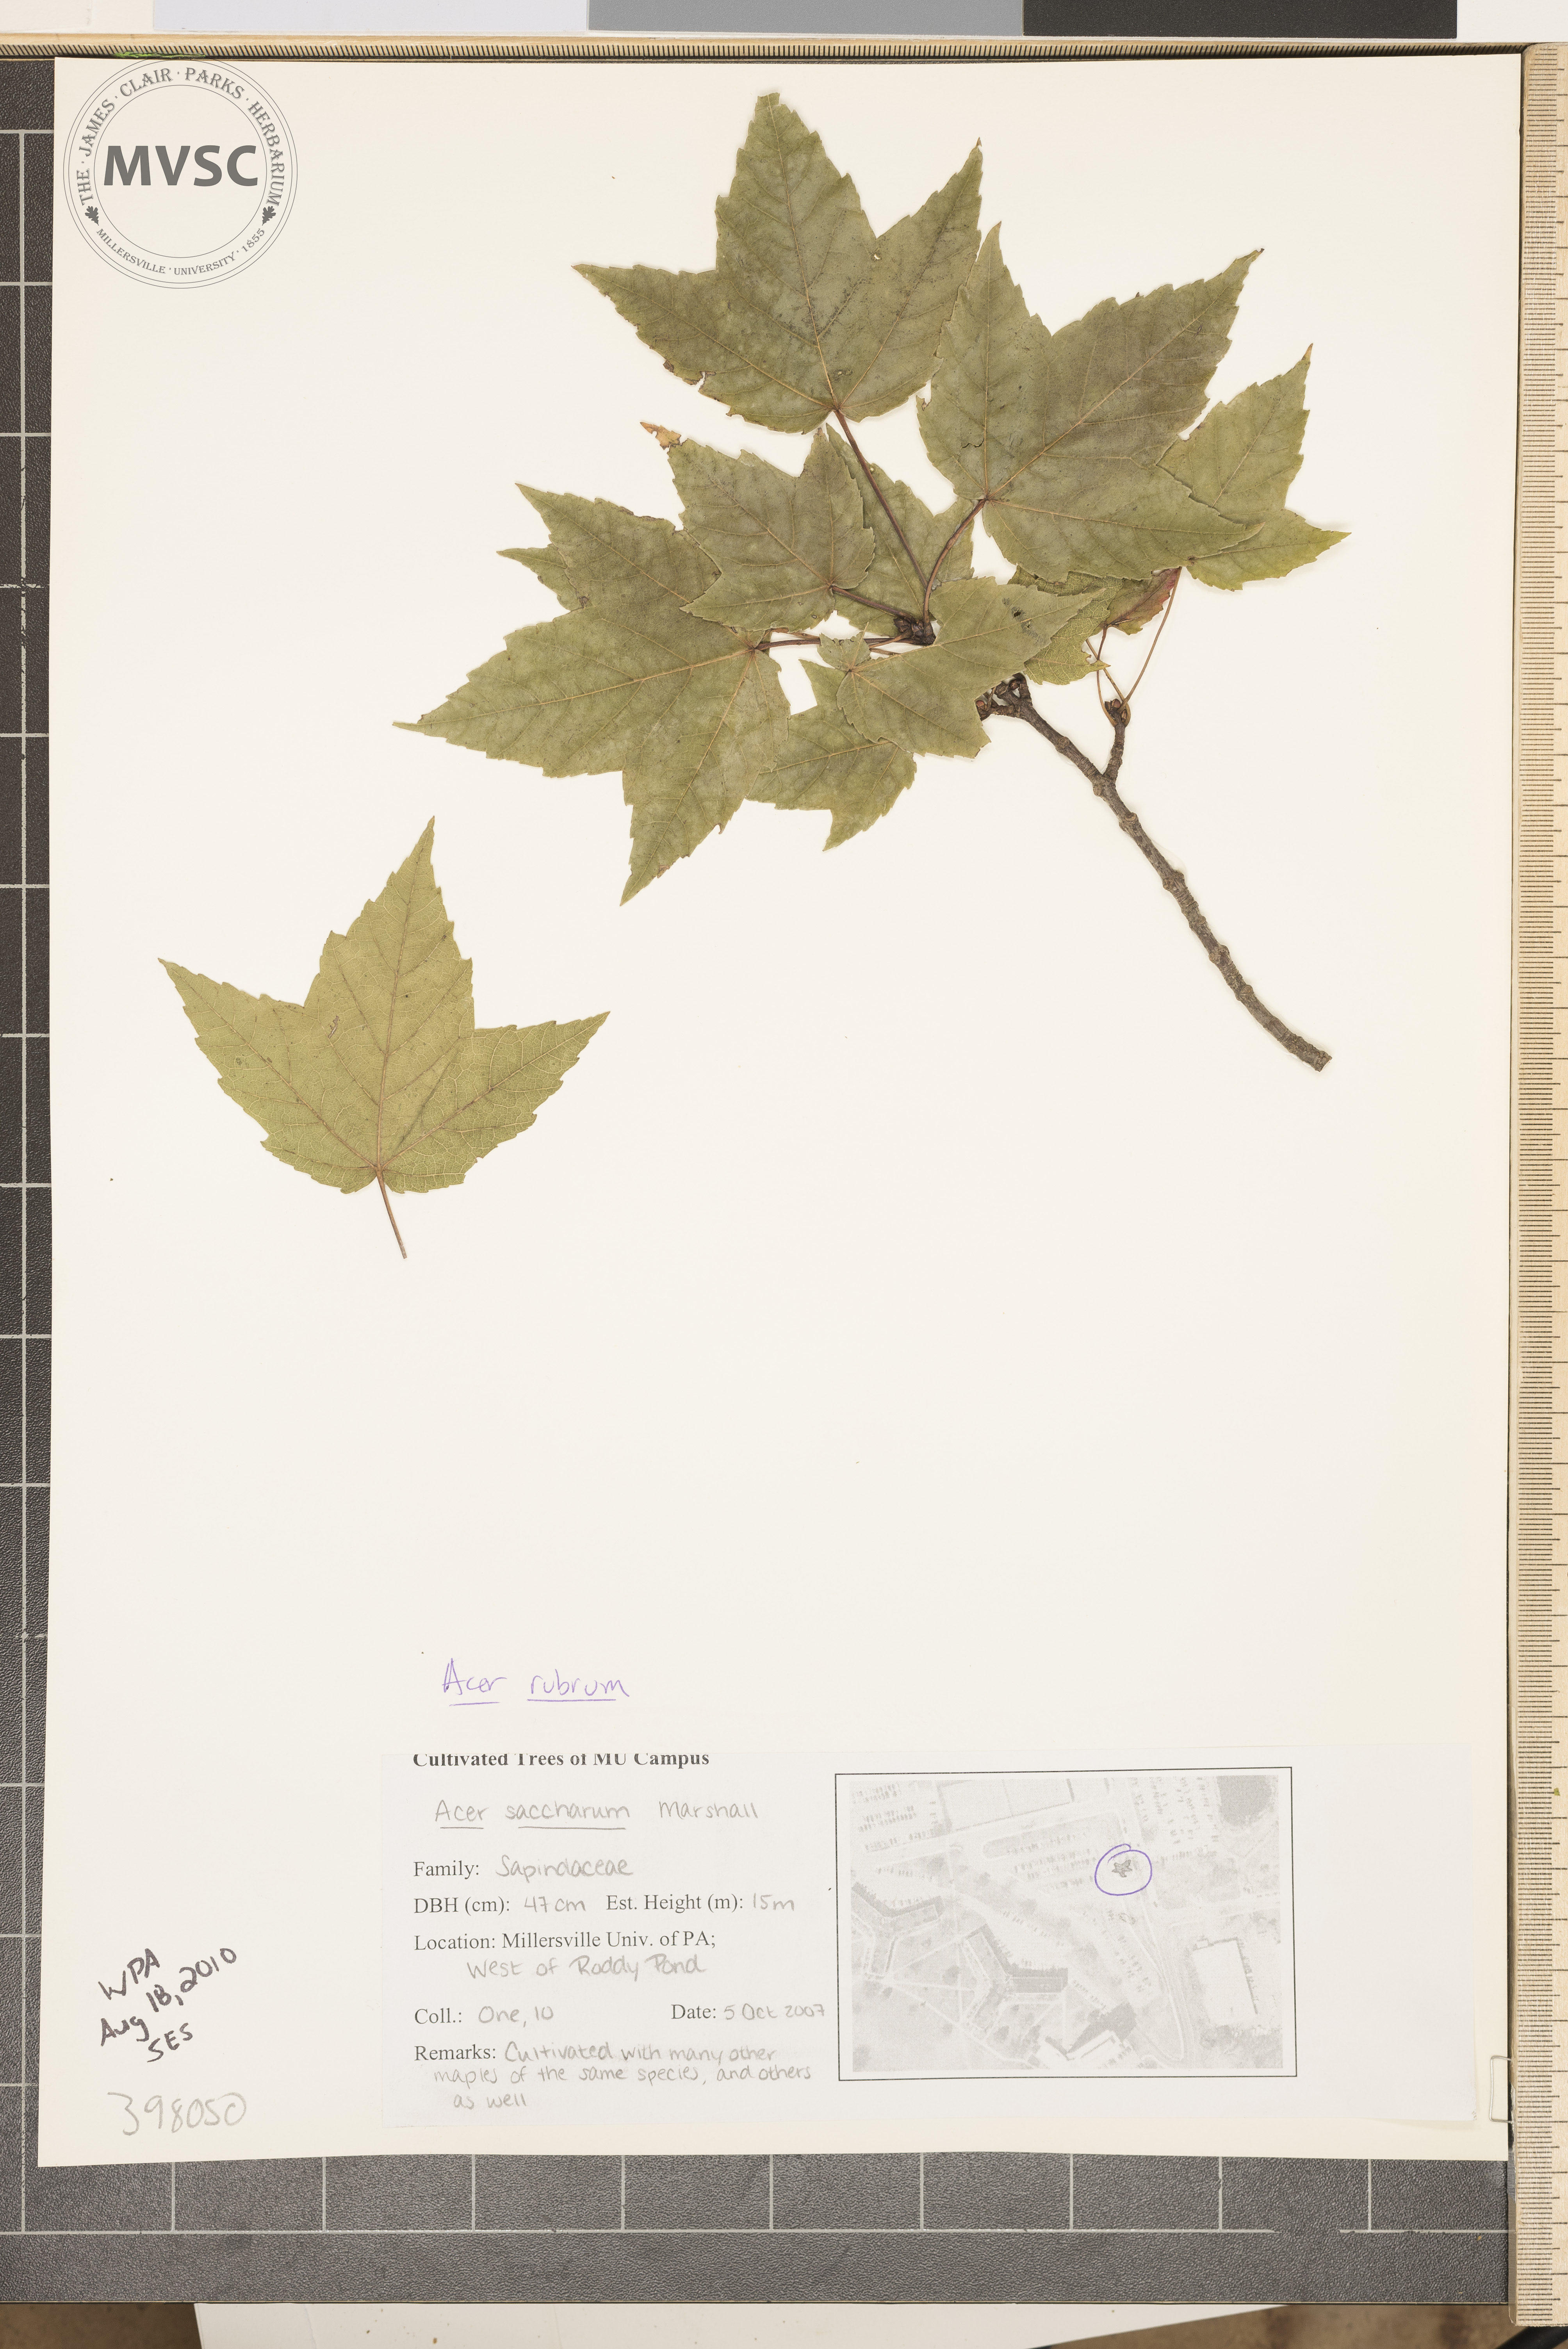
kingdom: Plantae
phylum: Tracheophyta
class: Magnoliopsida
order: Sapindales
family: Sapindaceae
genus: Acer
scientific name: Acer rubrum
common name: Red maple
